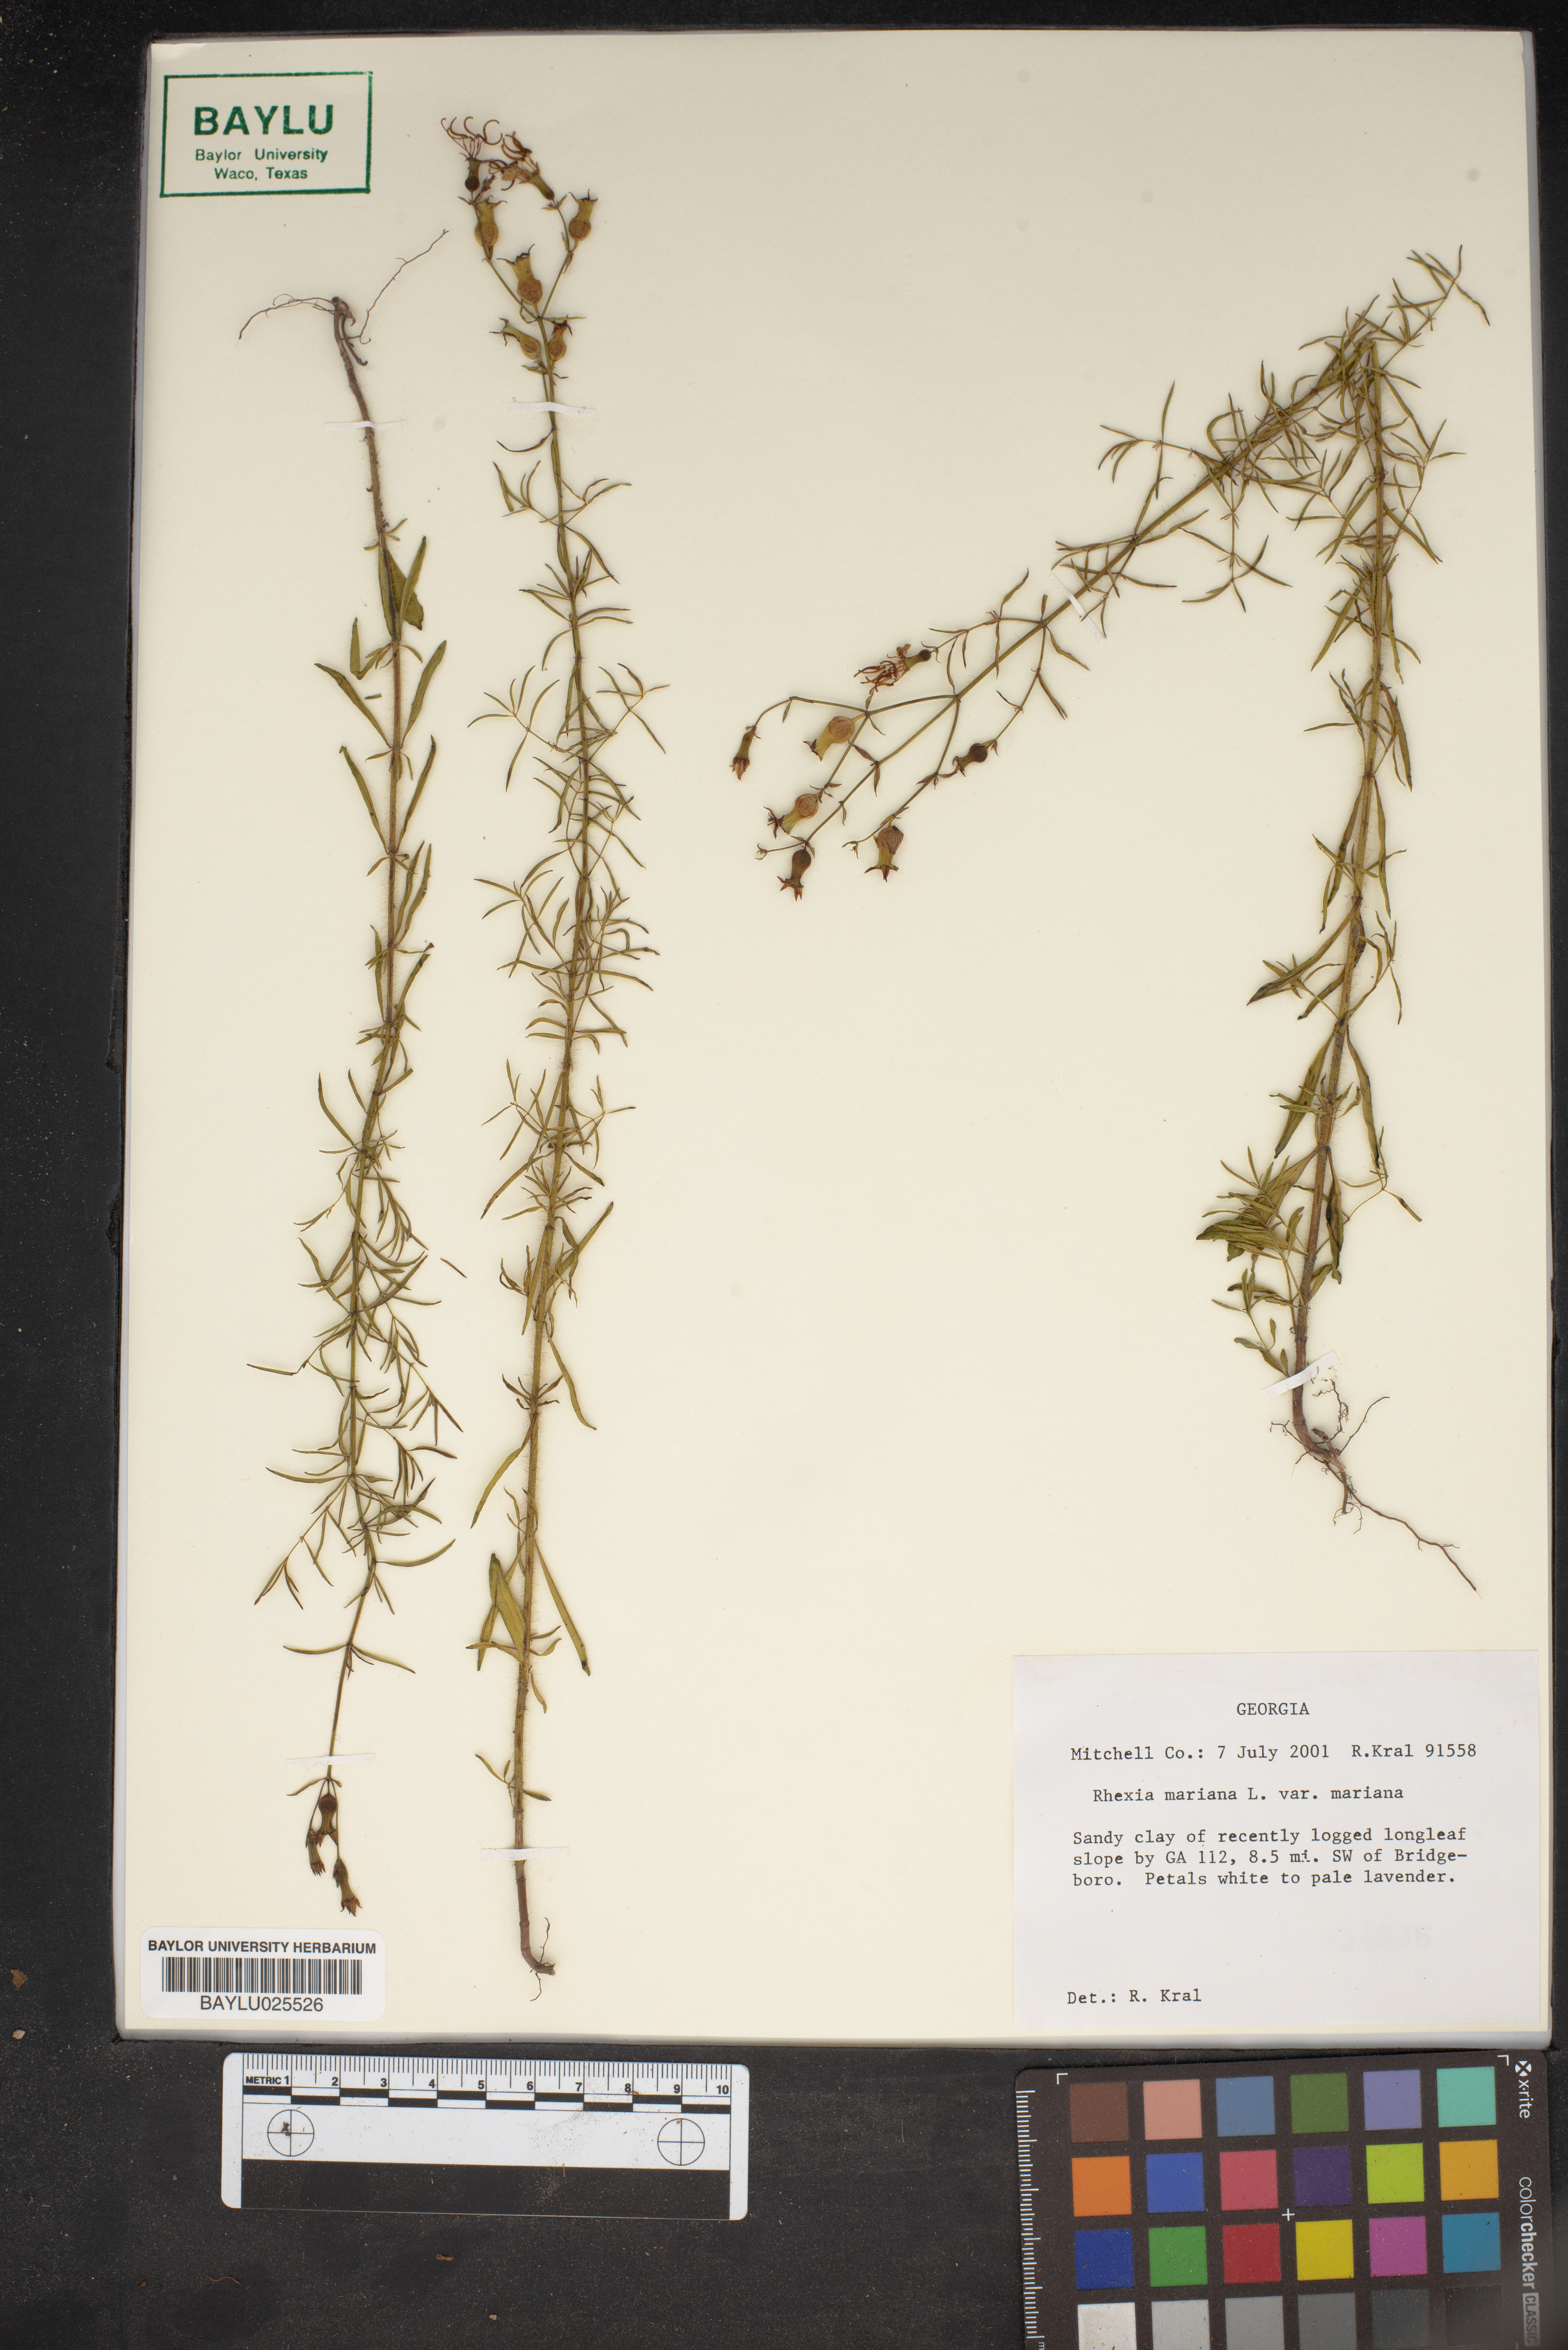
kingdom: Plantae
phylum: Tracheophyta
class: Magnoliopsida
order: Myrtales
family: Melastomataceae
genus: Rhexia
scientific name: Rhexia mariana
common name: Dull meadow-pitcher
